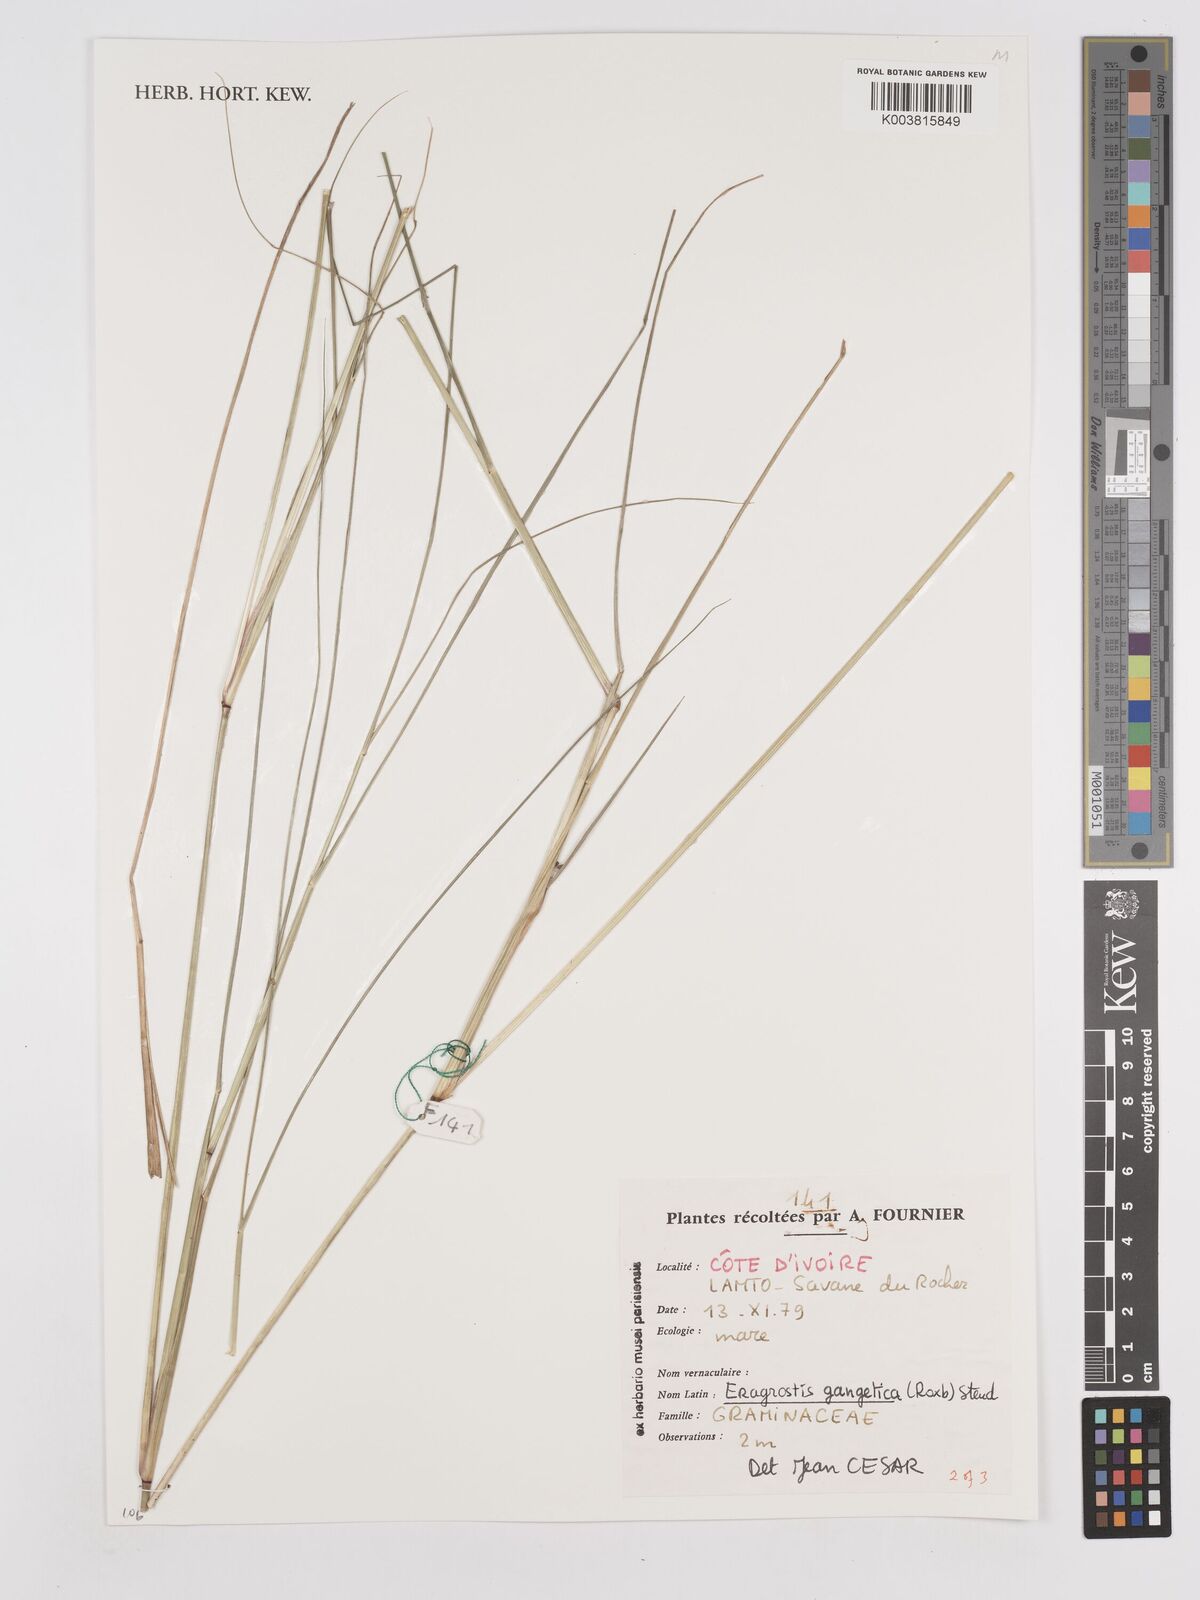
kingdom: Plantae
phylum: Tracheophyta
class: Liliopsida
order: Poales
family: Poaceae
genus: Eragrostis
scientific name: Eragrostis gangetica
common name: Slimflower lovegrass
